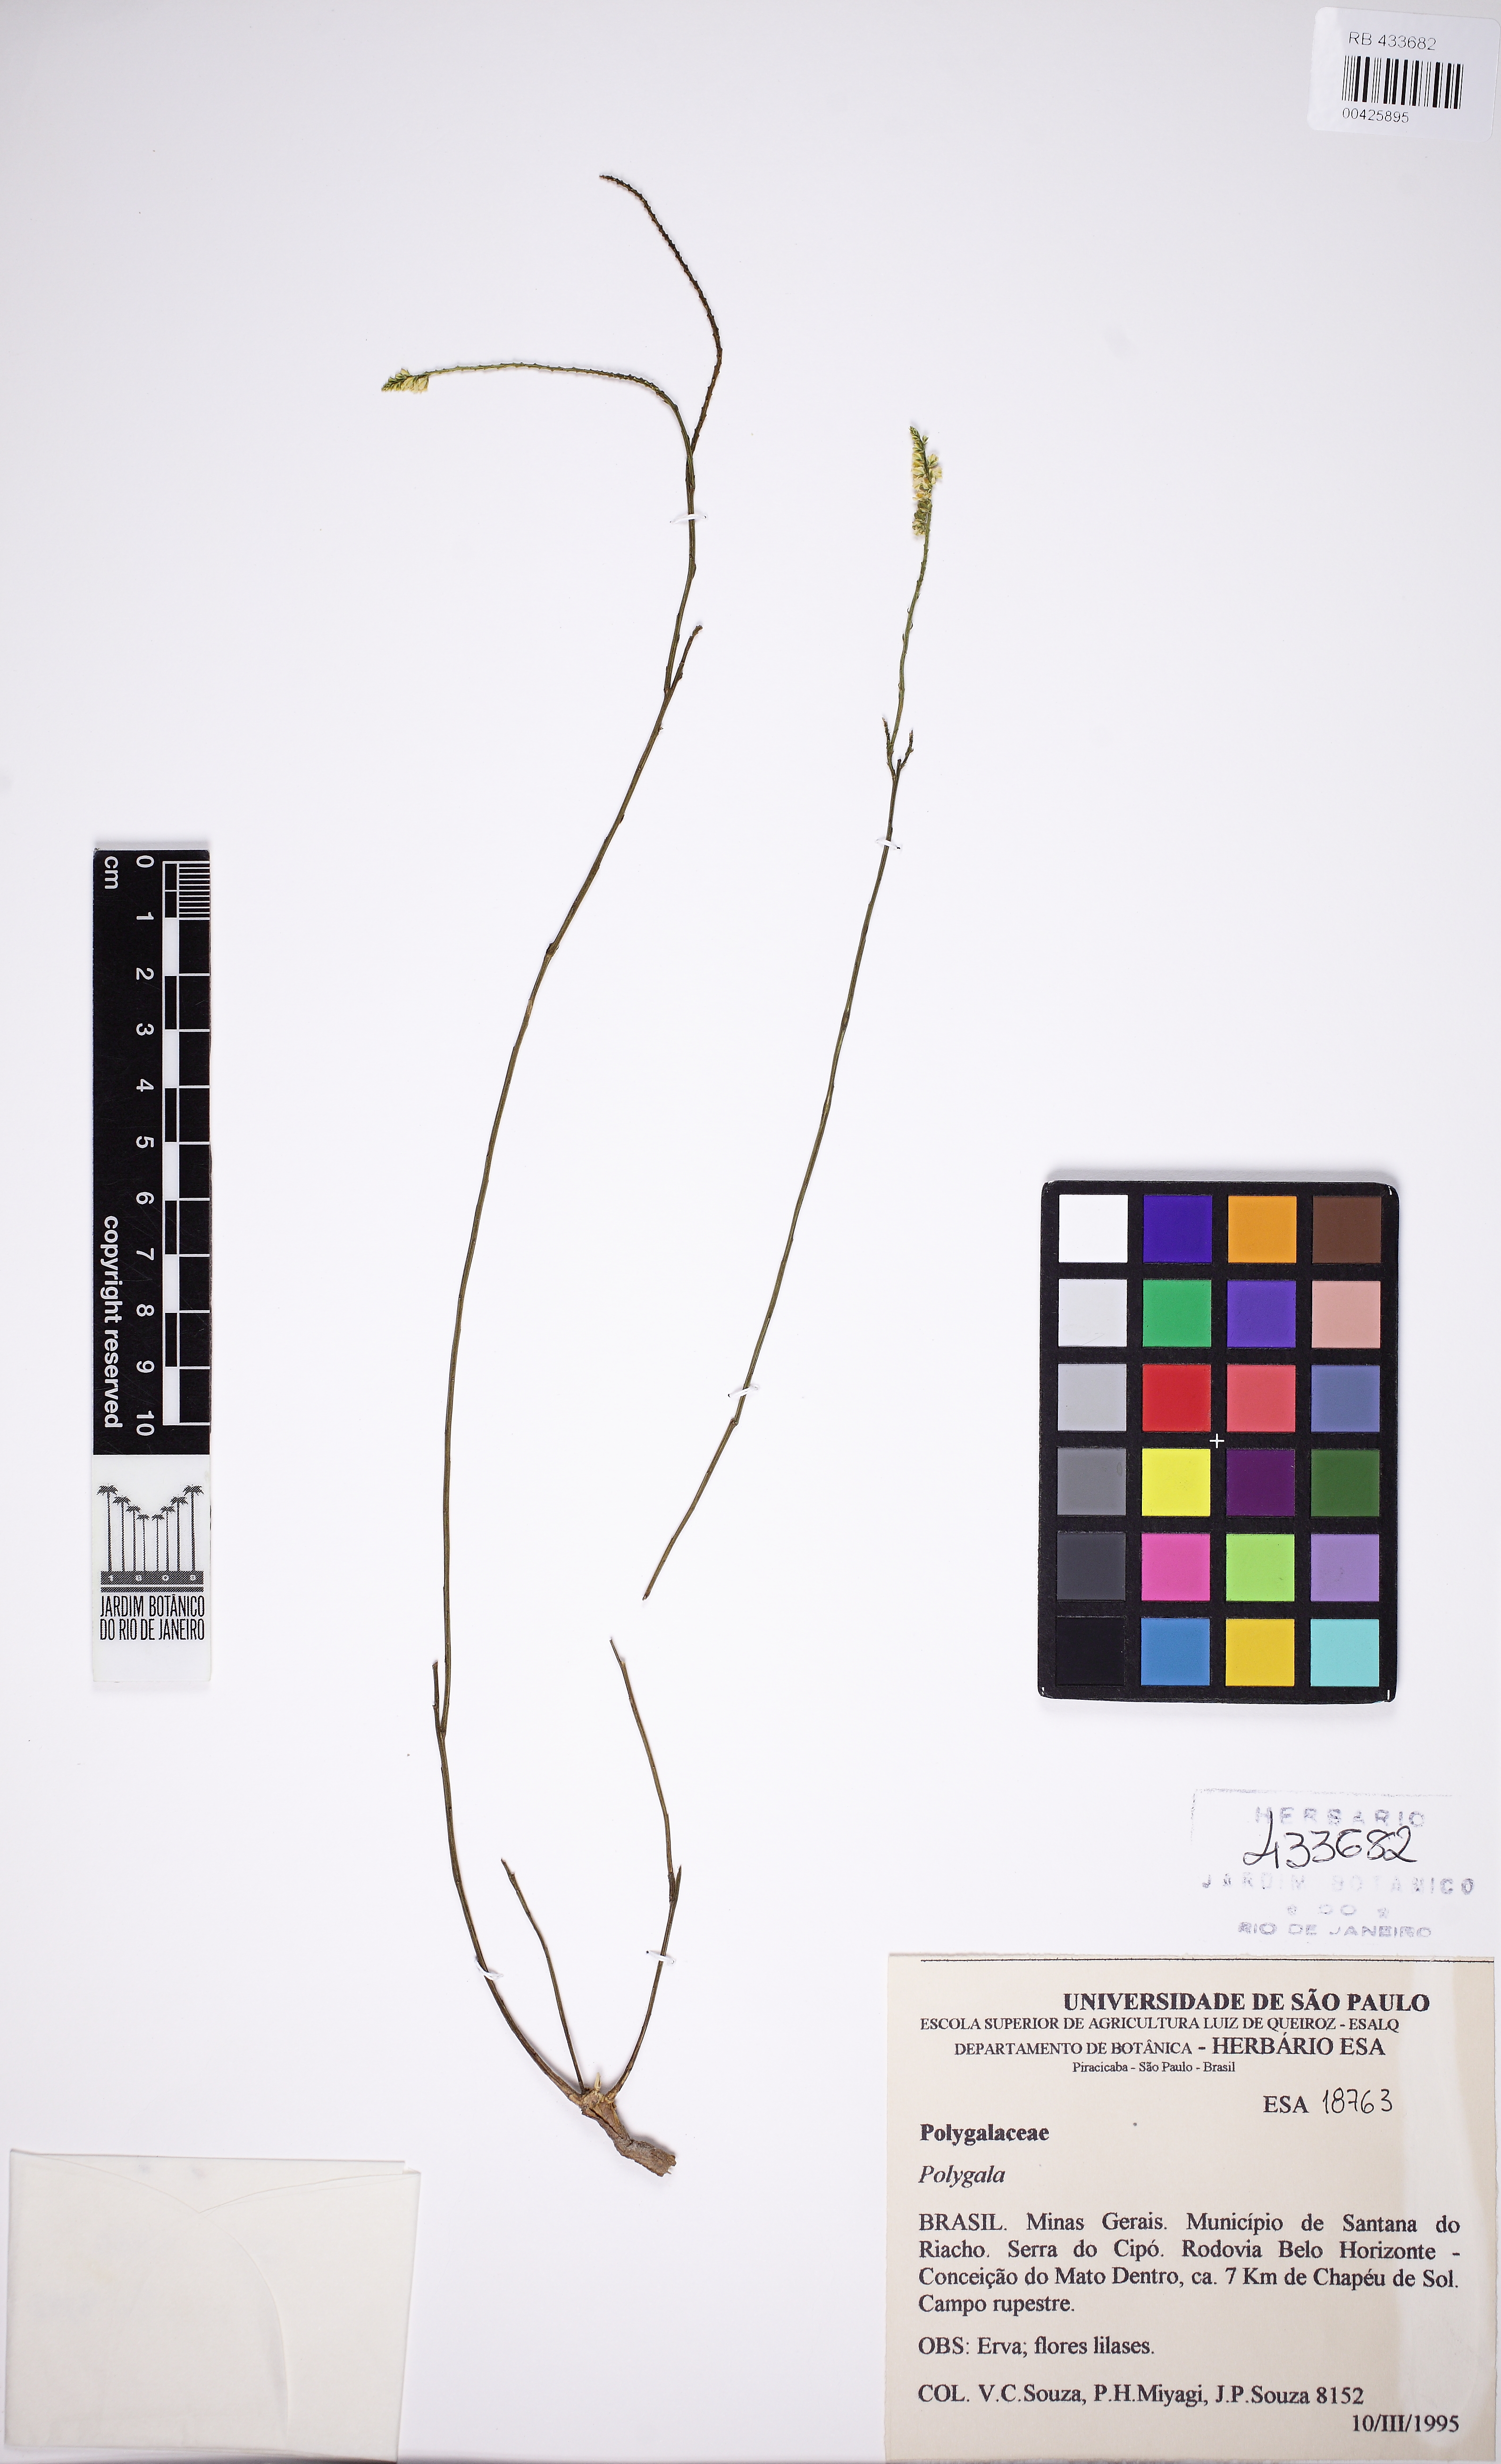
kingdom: Plantae
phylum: Tracheophyta
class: Magnoliopsida
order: Fabales
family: Polygalaceae
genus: Polygala
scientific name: Polygala nudicaulis
